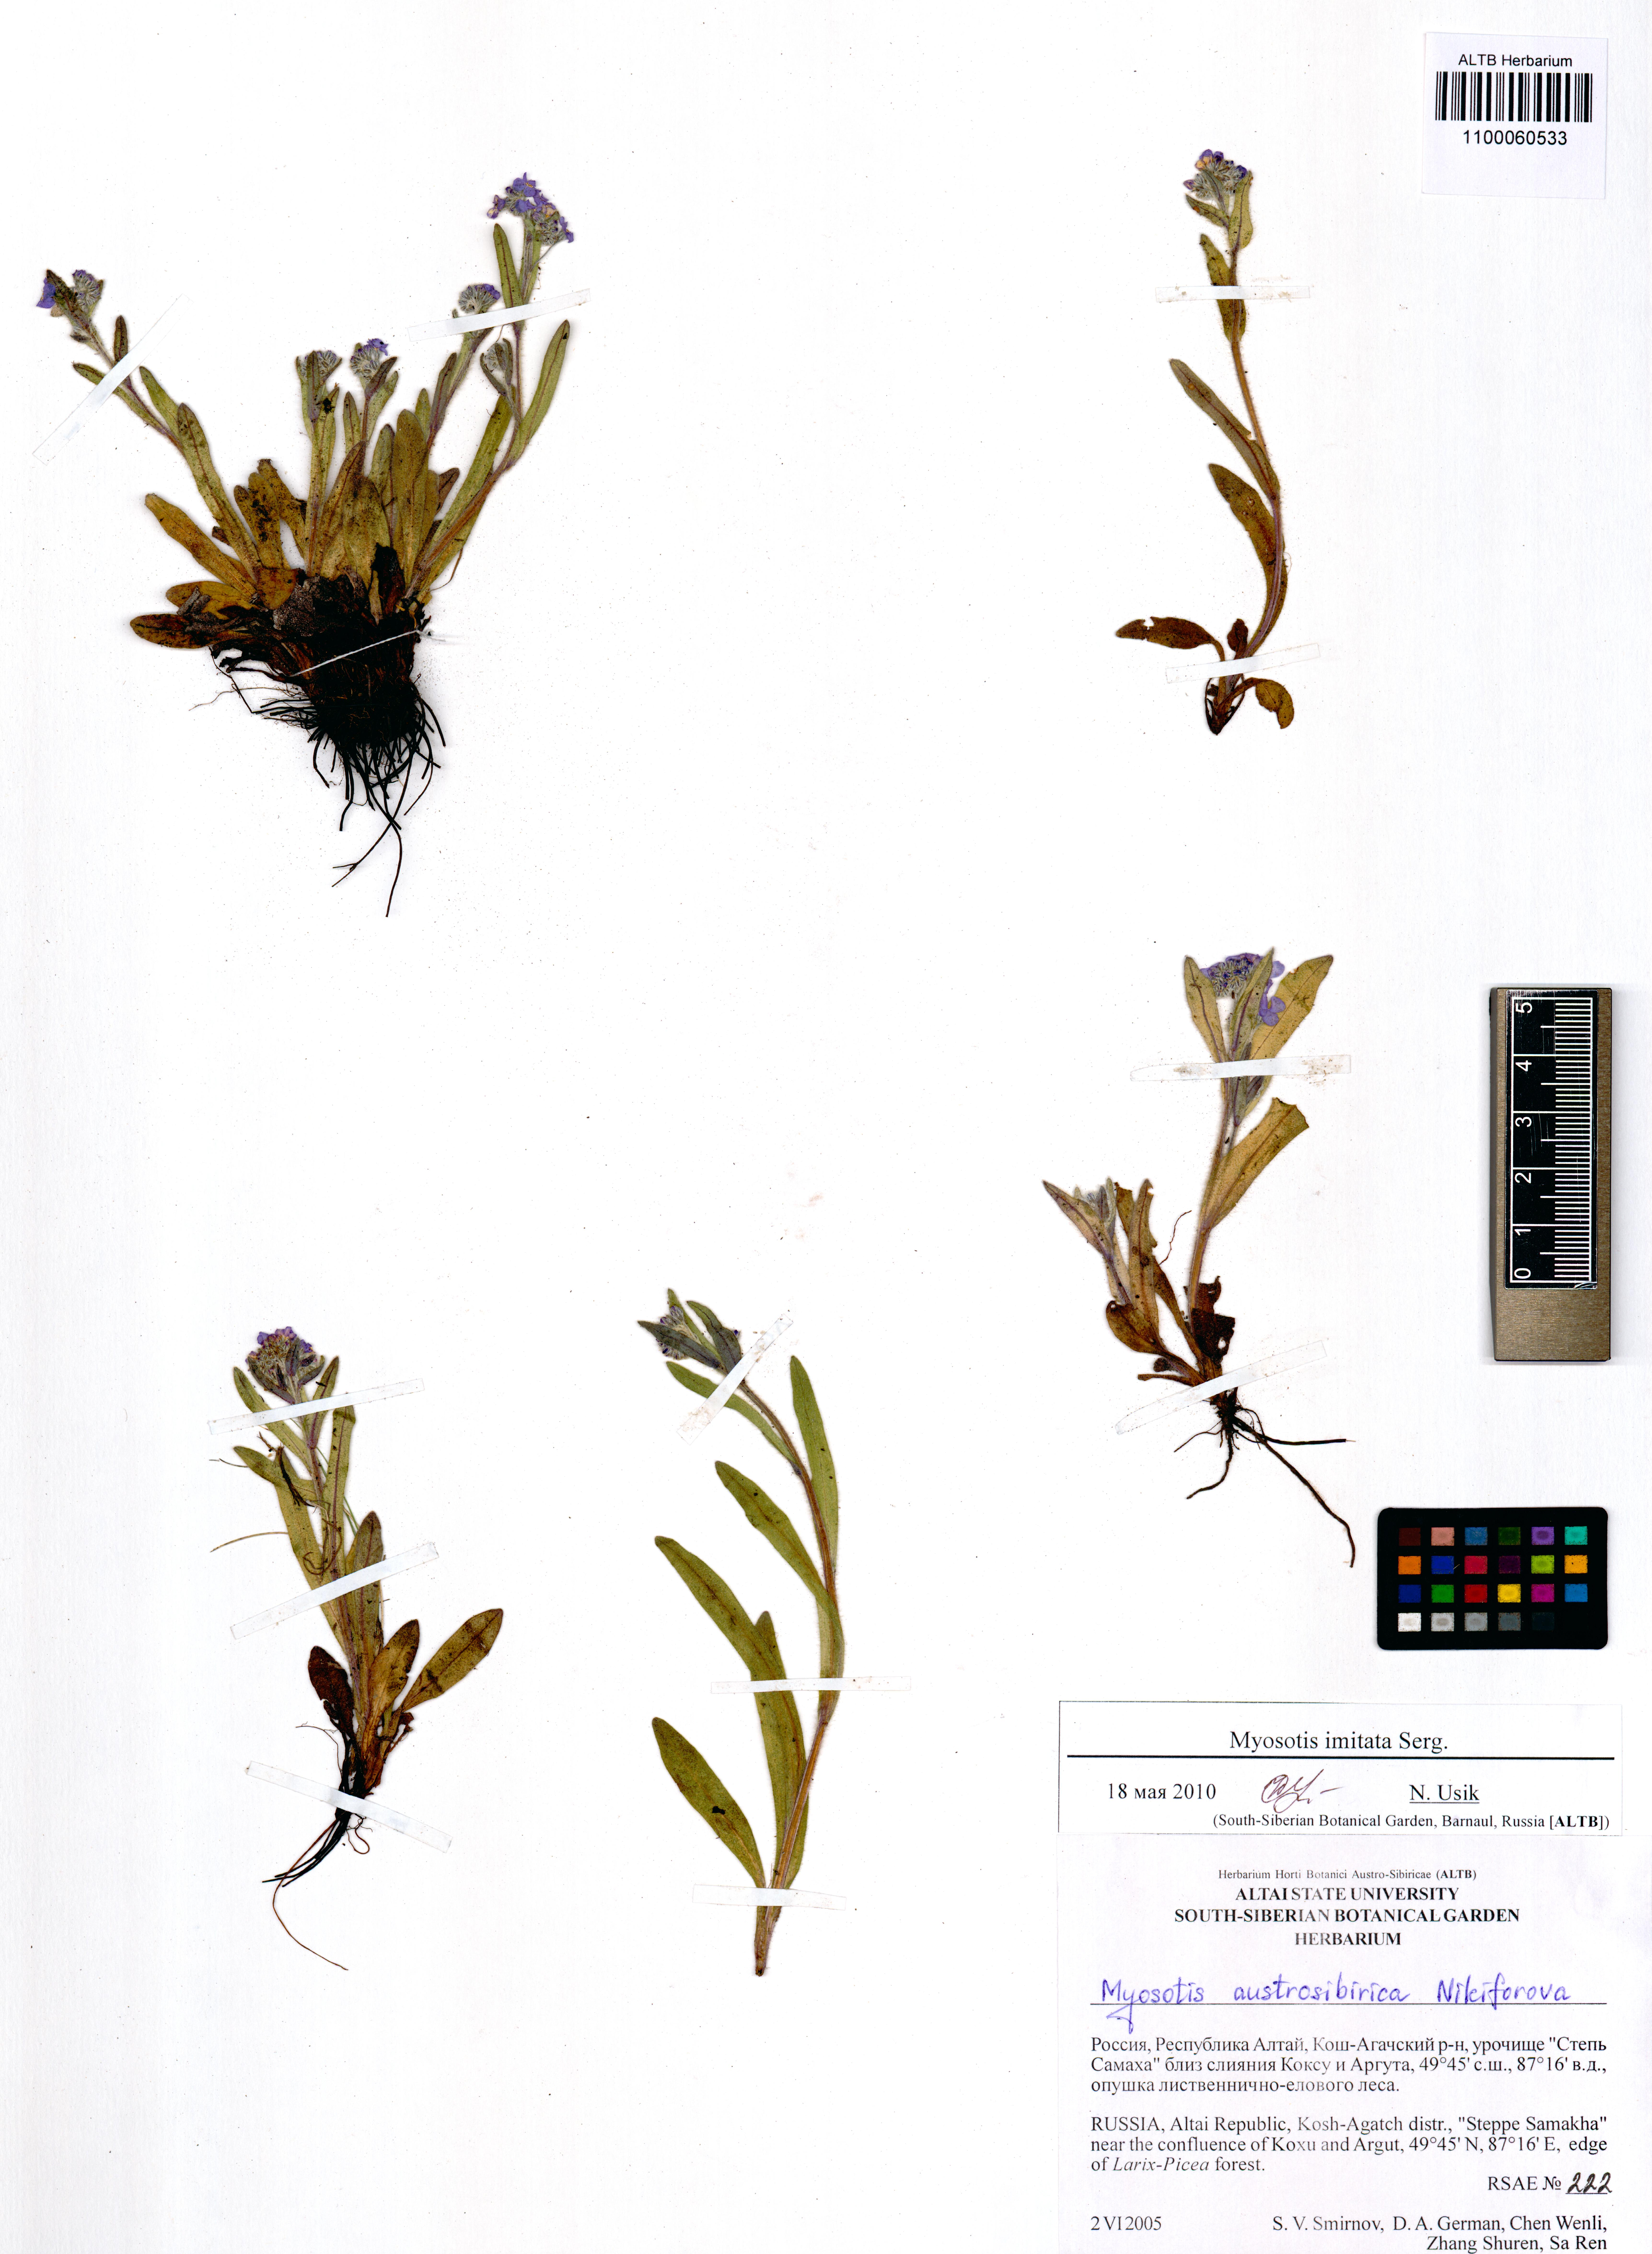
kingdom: Plantae
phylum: Tracheophyta
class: Magnoliopsida
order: Boraginales
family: Boraginaceae
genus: Myosotis
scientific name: Myosotis imitata
